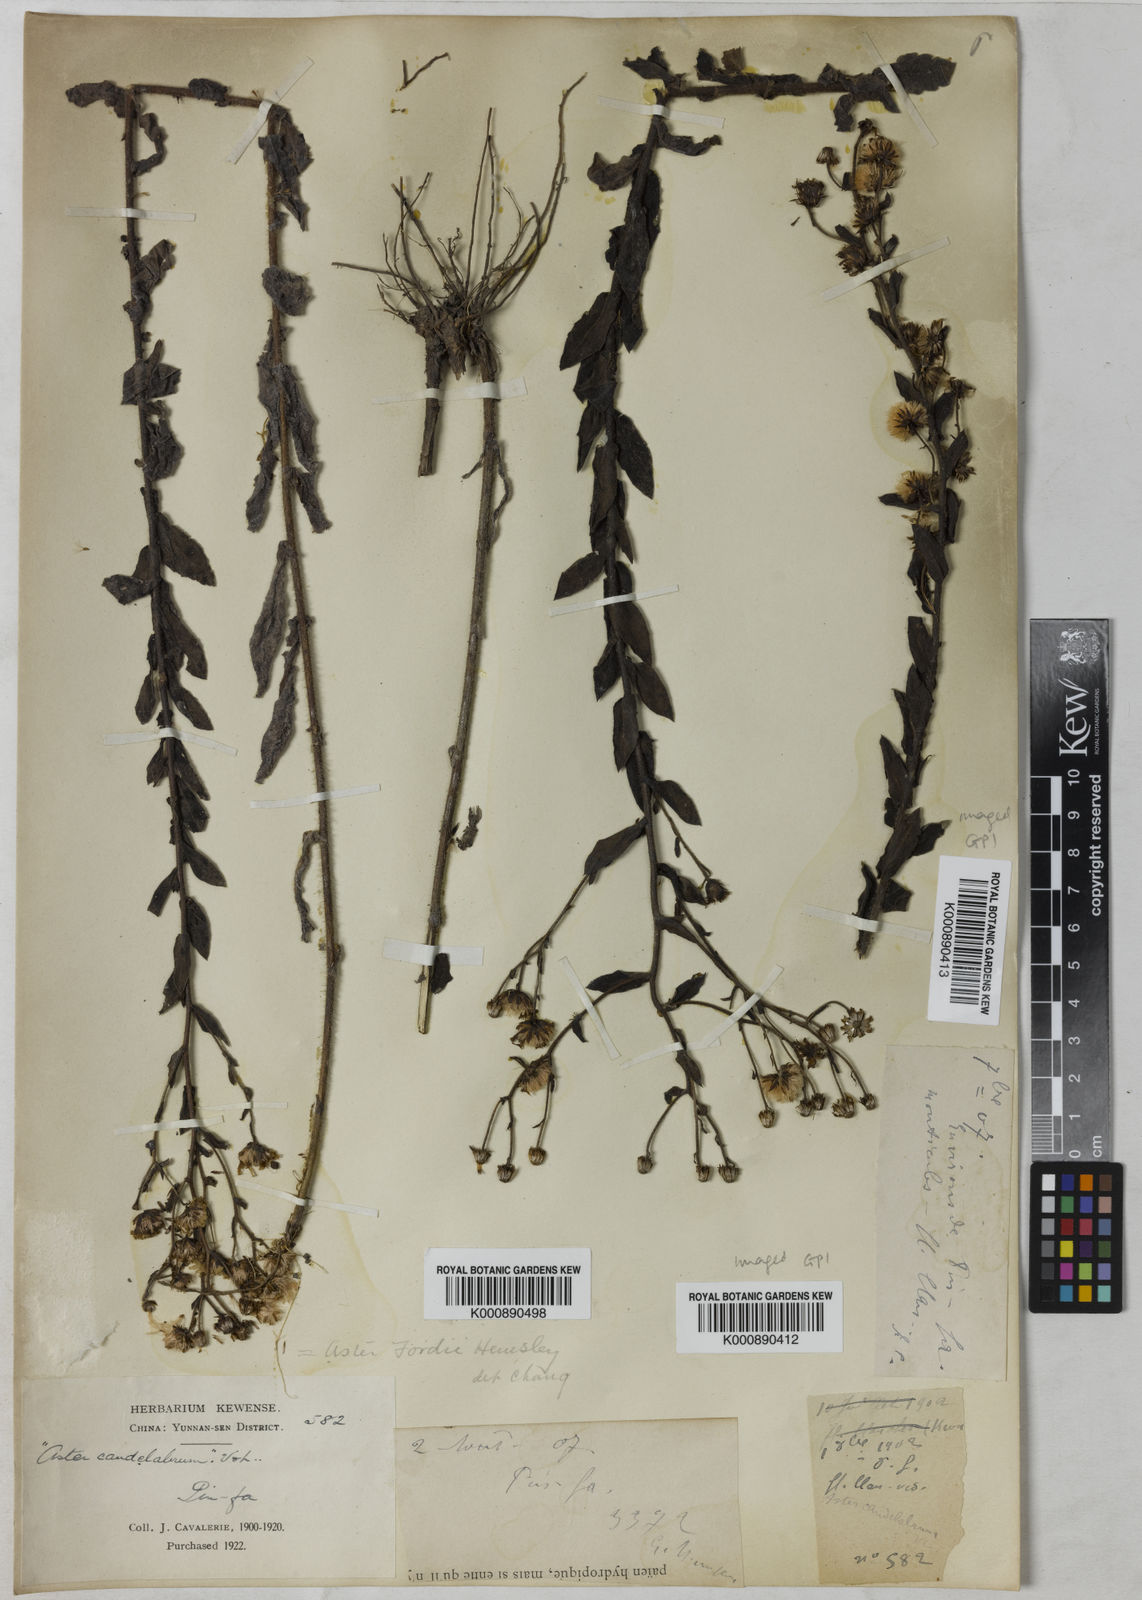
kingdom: Plantae
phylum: Tracheophyta
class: Magnoliopsida
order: Asterales
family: Asteraceae
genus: Heteropappus
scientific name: Heteropappus sampsonii
